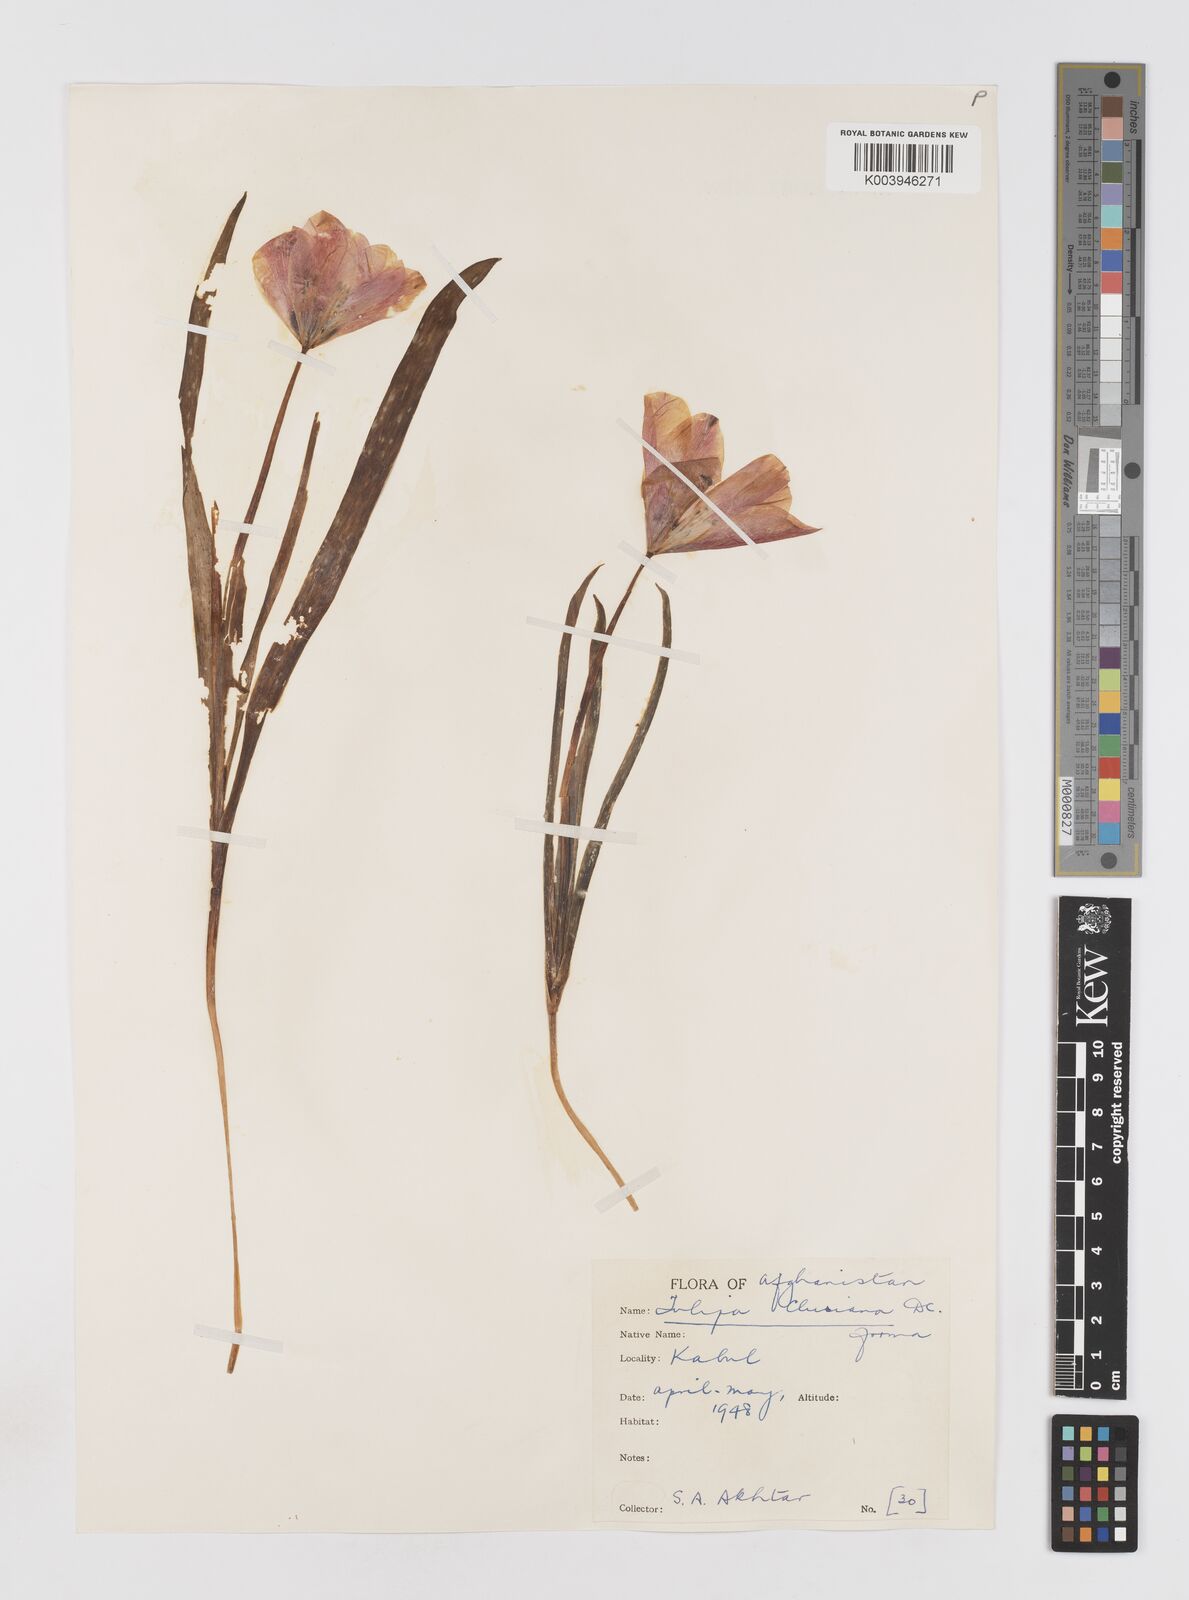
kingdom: Plantae
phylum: Tracheophyta
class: Liliopsida
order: Liliales
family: Liliaceae
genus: Tulipa
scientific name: Tulipa clusiana
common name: Lady tulip
